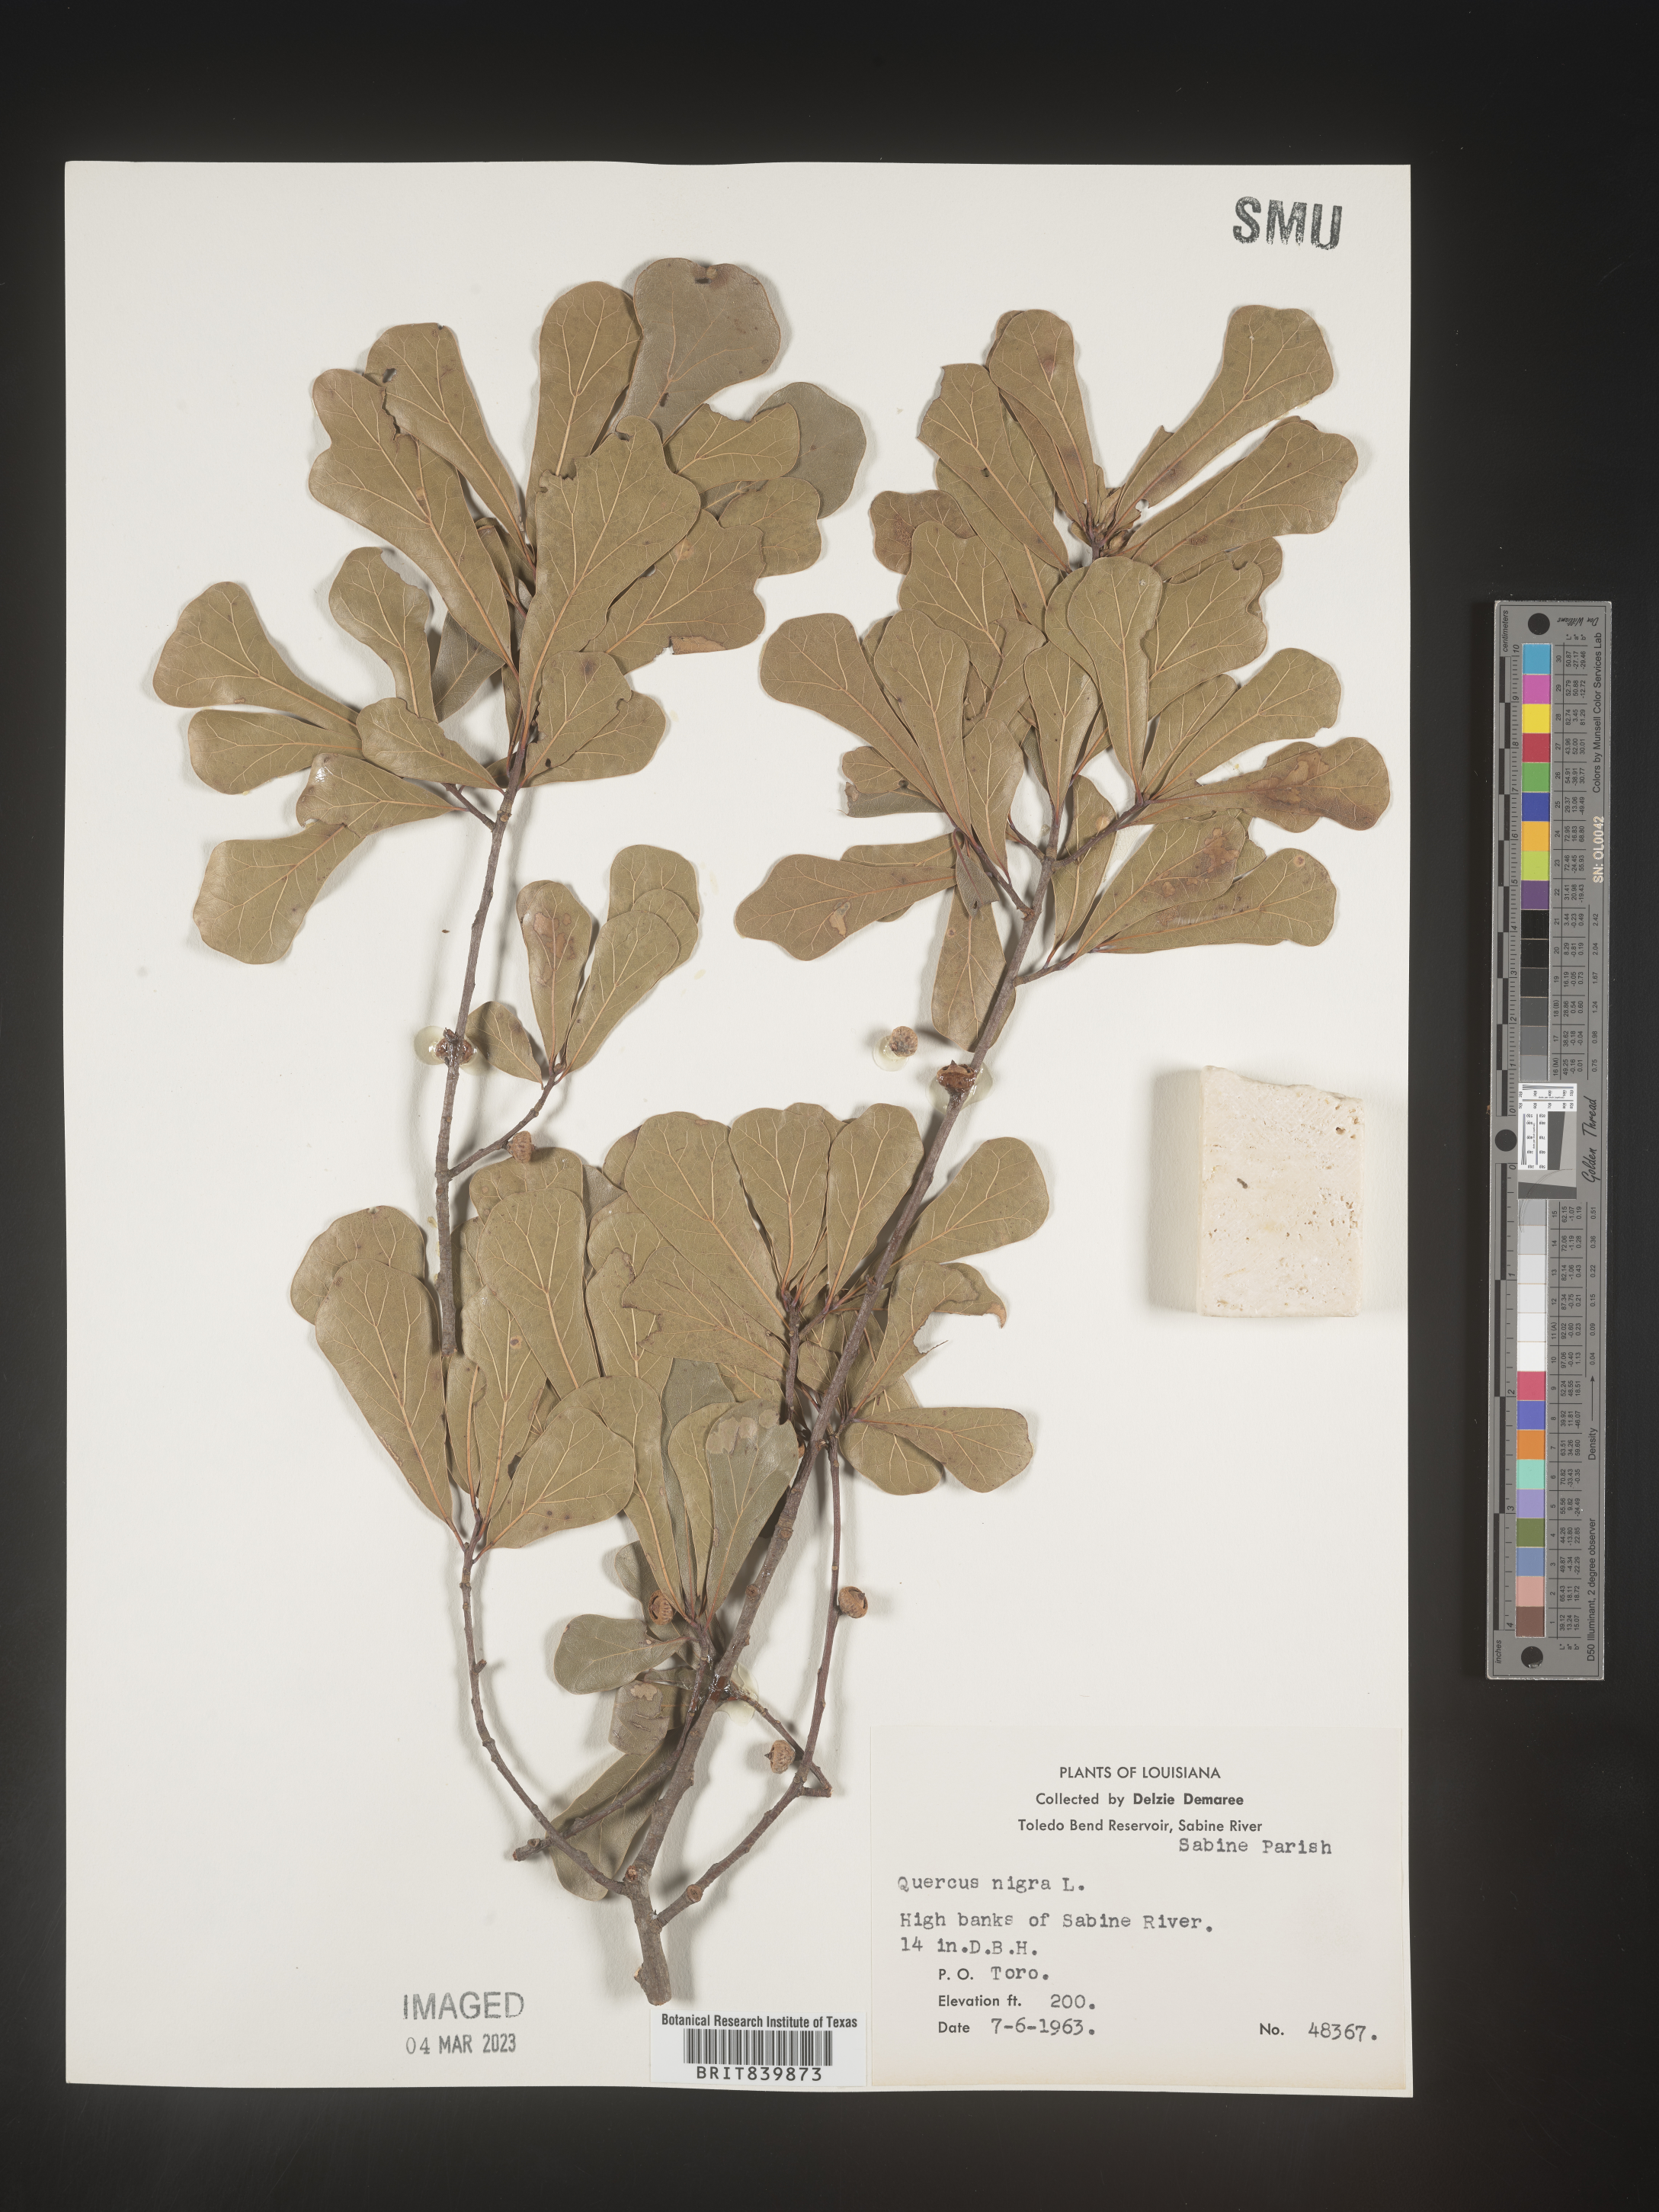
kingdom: Plantae
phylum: Tracheophyta
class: Magnoliopsida
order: Fagales
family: Fagaceae
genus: Quercus
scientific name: Quercus nigra
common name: Water oak
